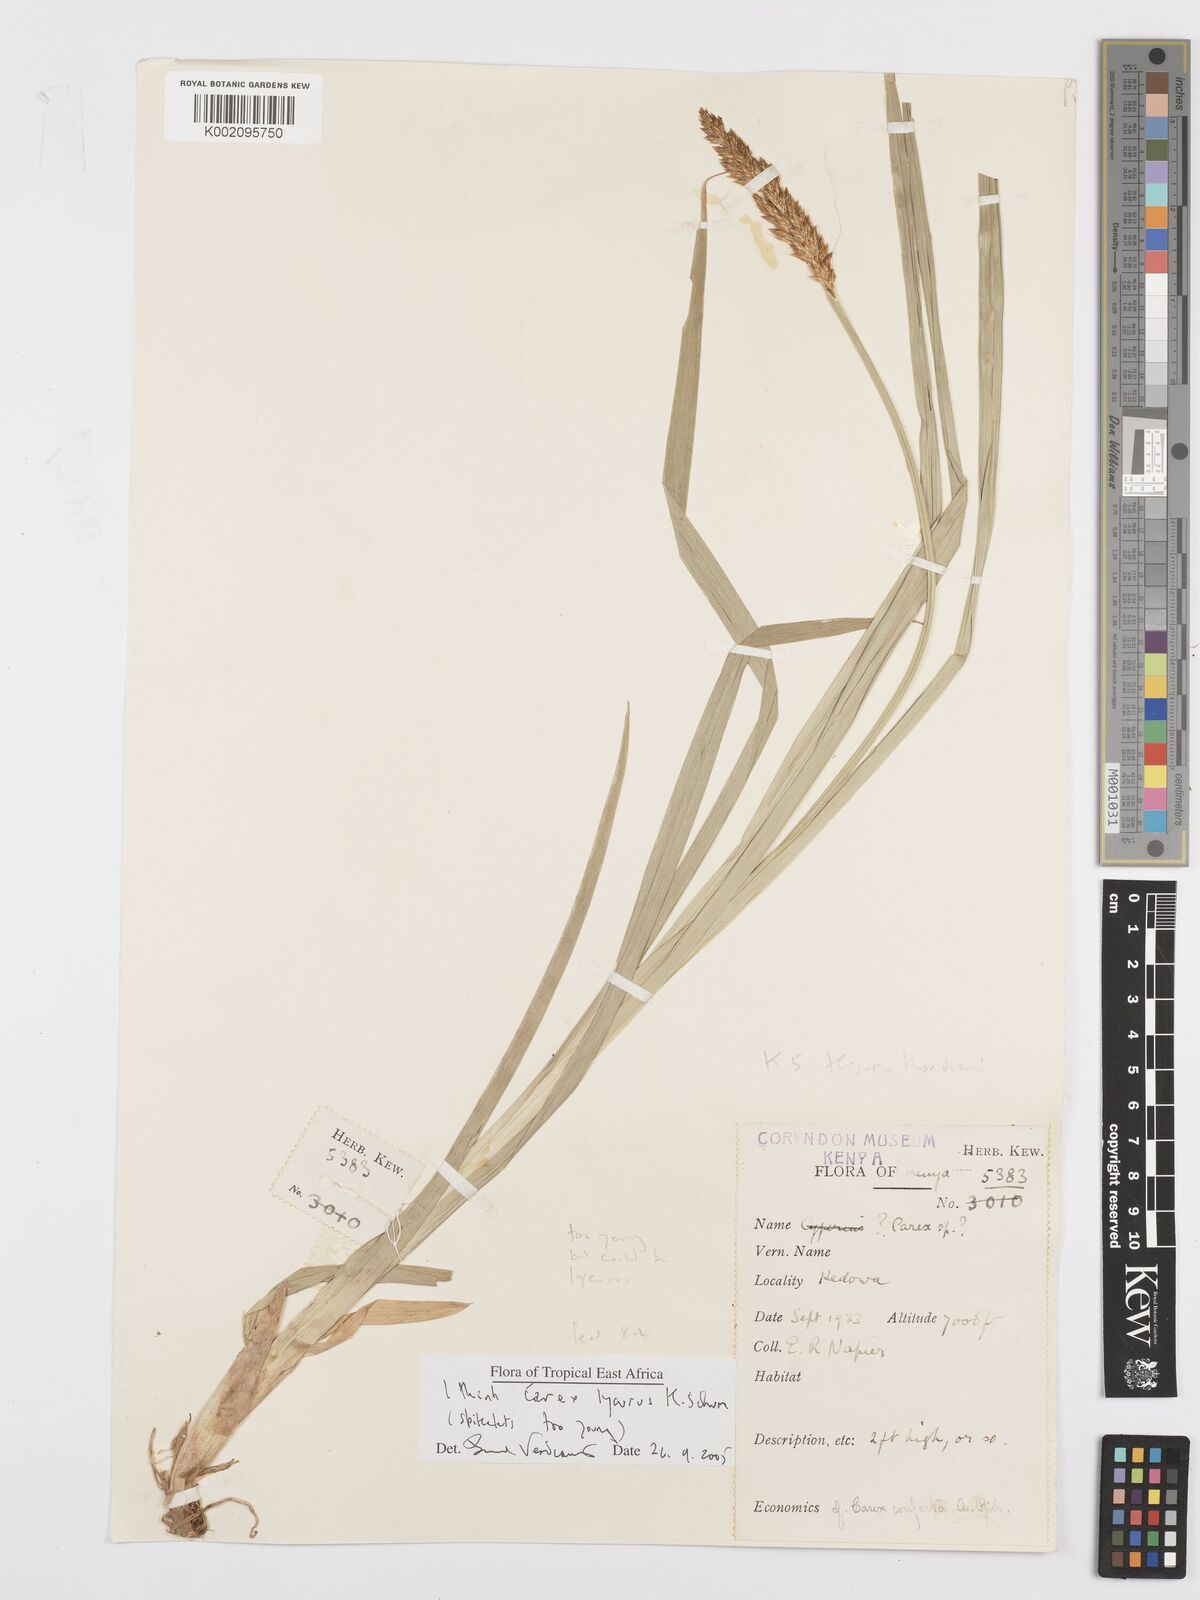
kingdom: Plantae
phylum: Tracheophyta
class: Liliopsida
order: Poales
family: Cyperaceae
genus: Carex
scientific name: Carex lycurus
